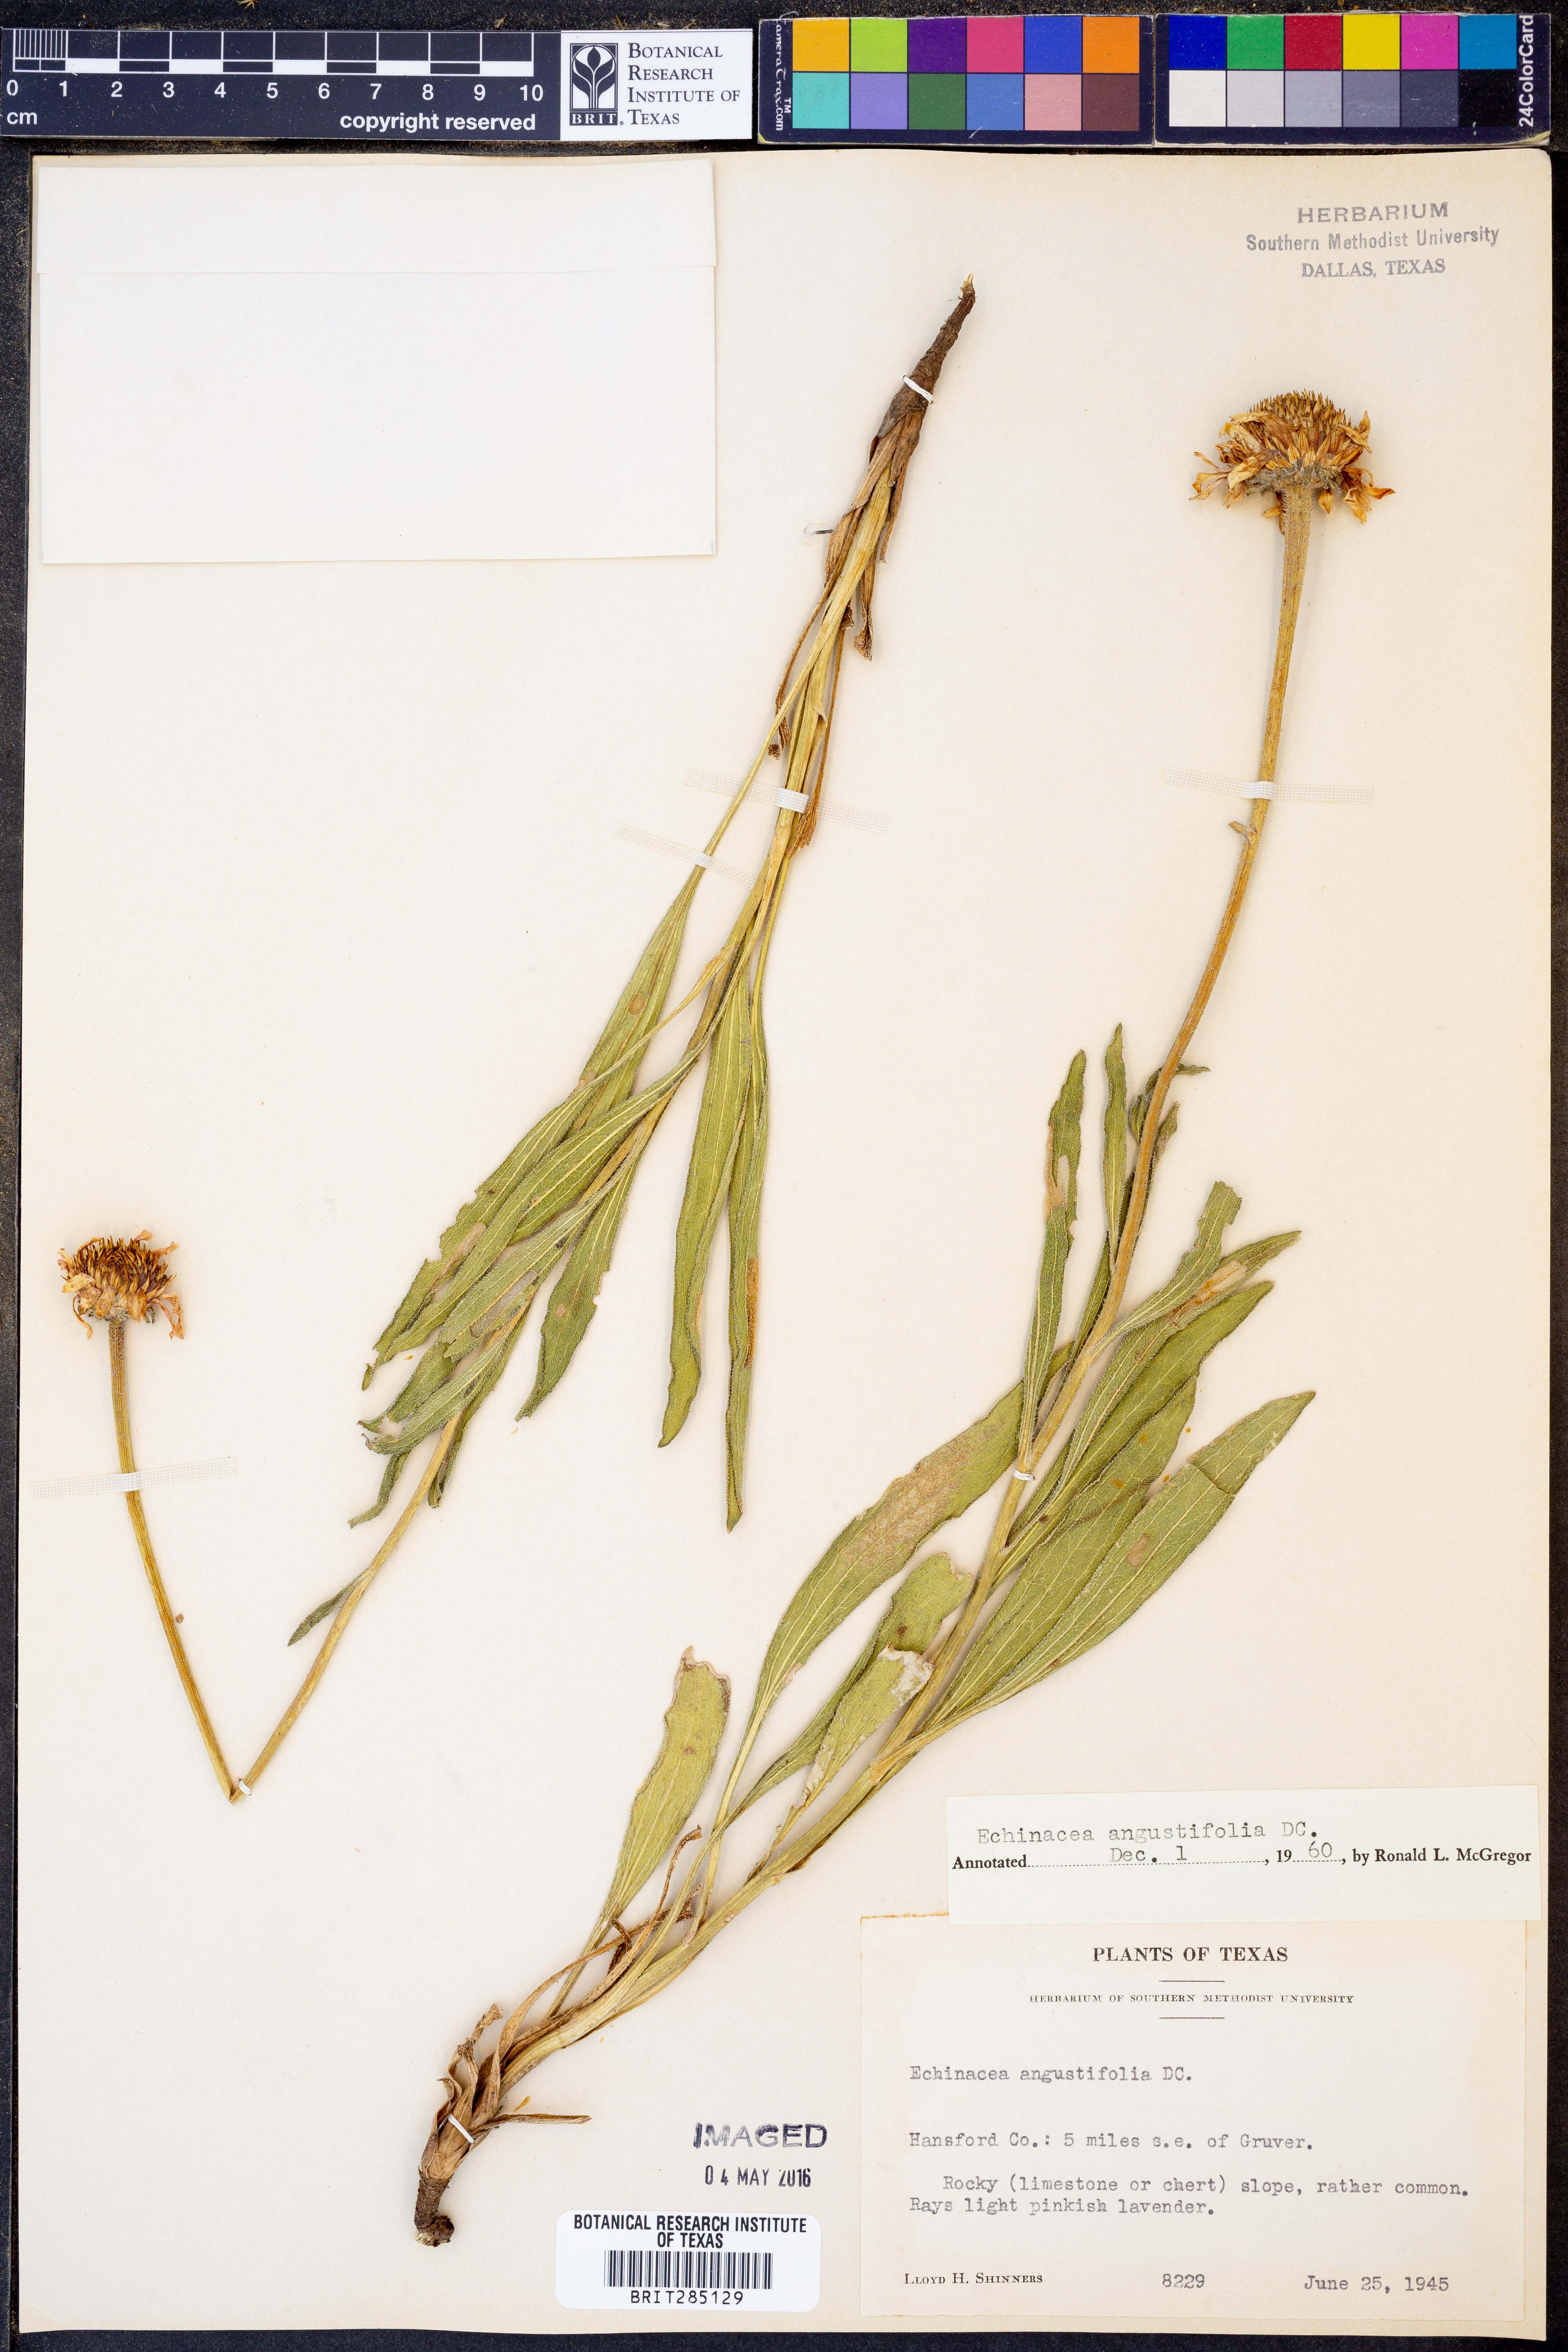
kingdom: Plantae
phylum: Tracheophyta
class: Magnoliopsida
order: Asterales
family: Asteraceae
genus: Echinacea
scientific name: Echinacea angustifolia
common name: Black-sampson echinacea
